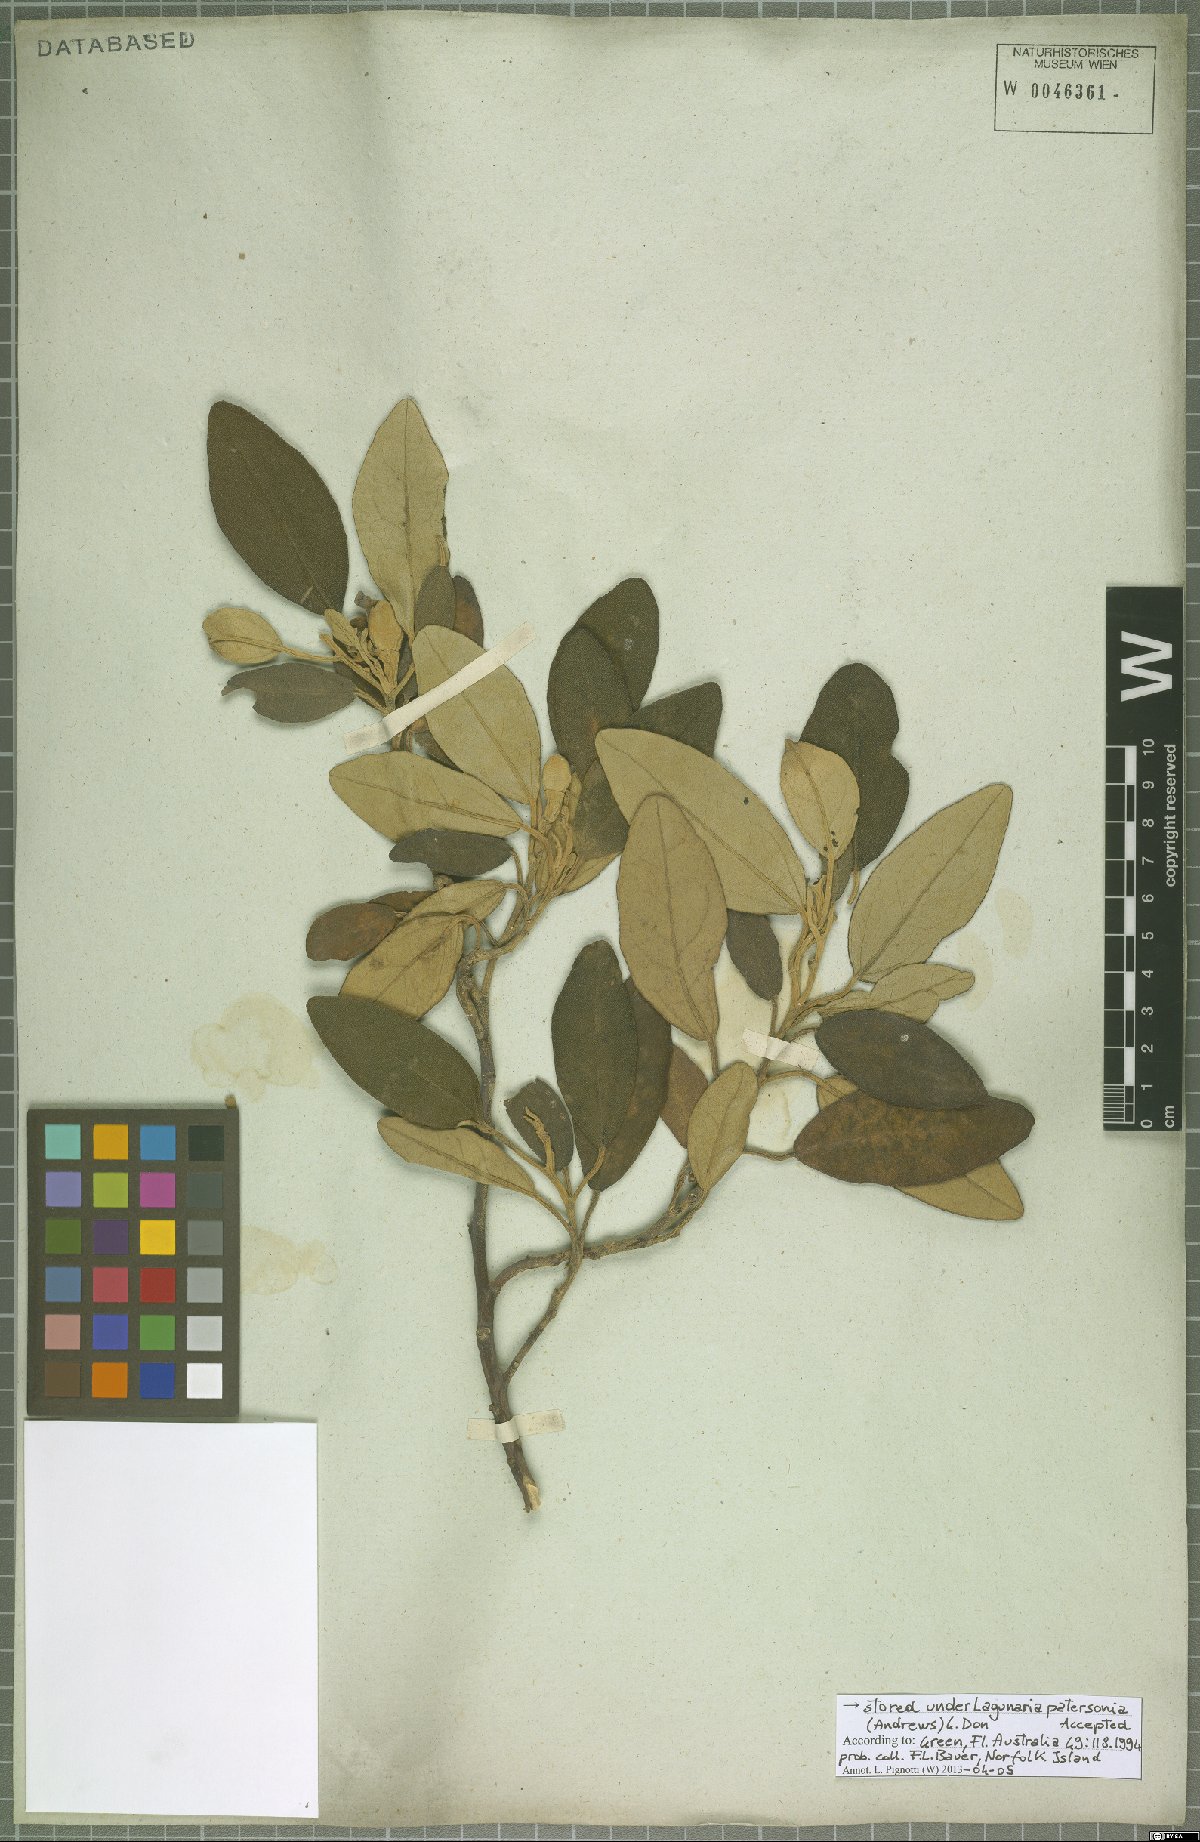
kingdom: Plantae
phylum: Tracheophyta
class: Magnoliopsida
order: Malvales
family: Malvaceae
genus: Lagunaria
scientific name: Lagunaria patersonia
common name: Cow itch tree
